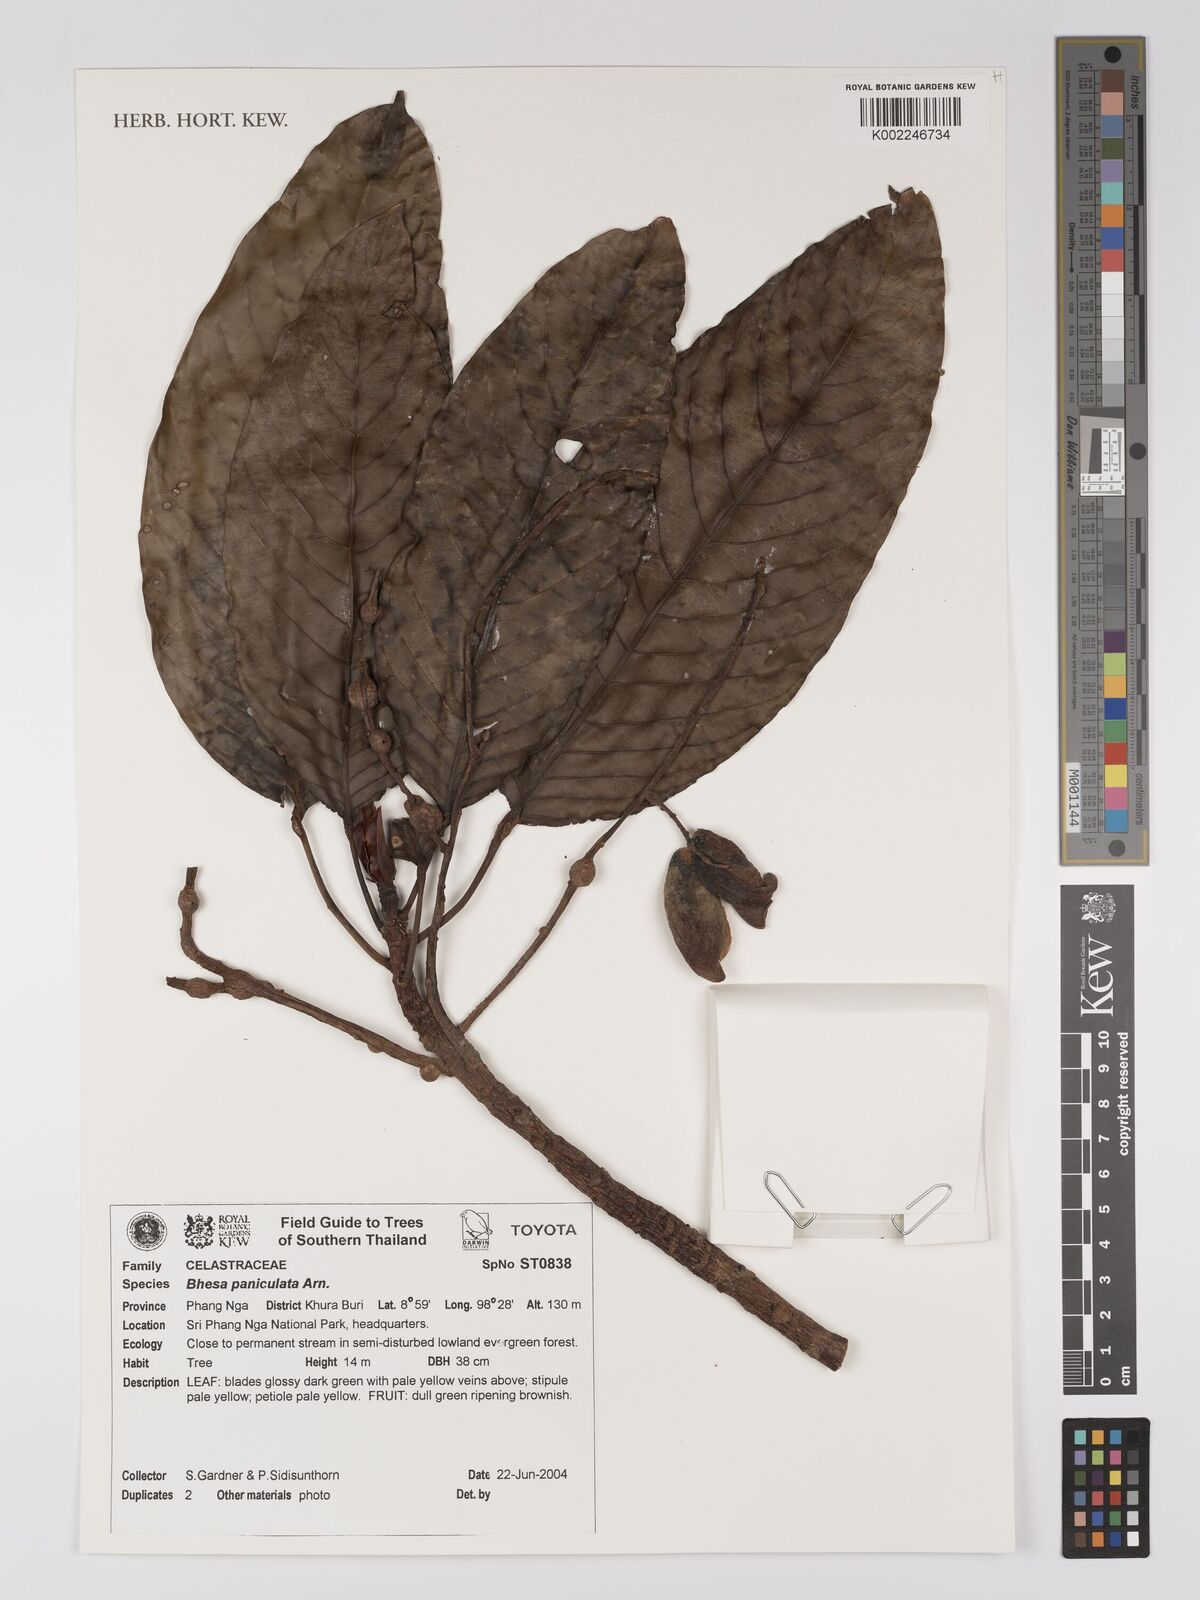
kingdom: Plantae
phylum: Tracheophyta
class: Magnoliopsida
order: Malpighiales
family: Centroplacaceae
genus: Bhesa
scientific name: Bhesa paniculata
